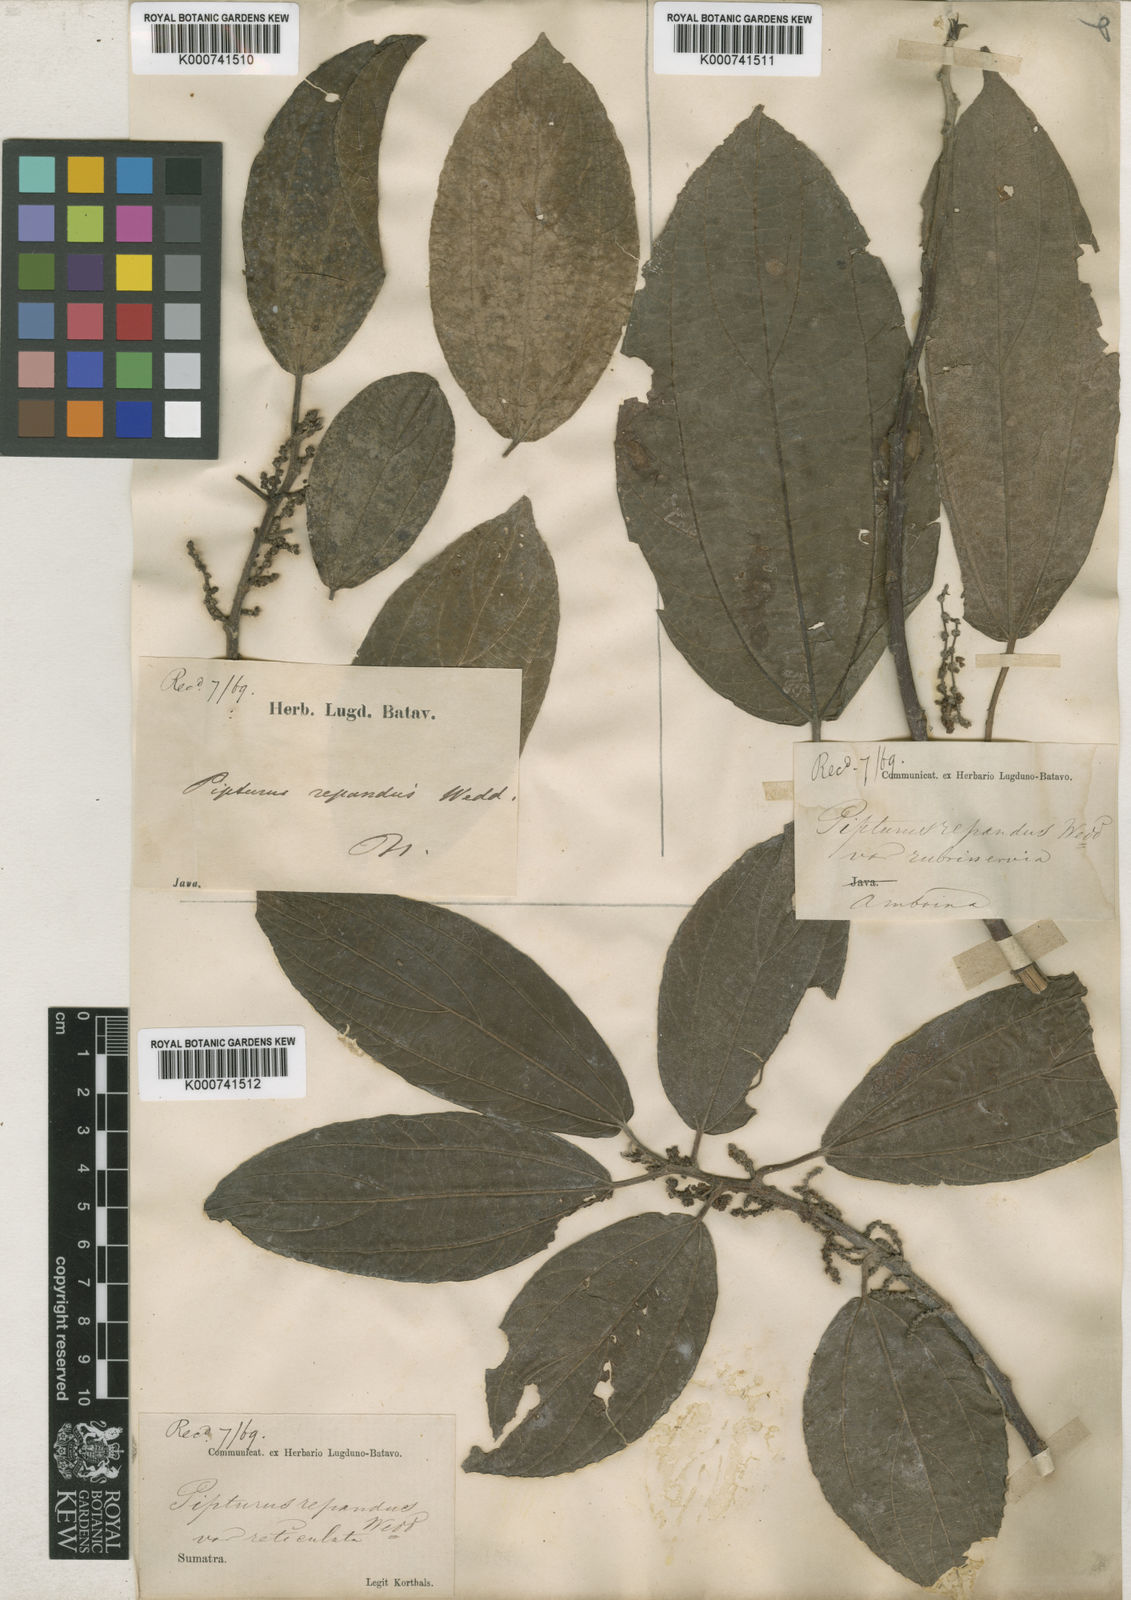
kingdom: Plantae
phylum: Tracheophyta
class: Magnoliopsida
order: Rosales
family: Urticaceae
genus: Nothocnide
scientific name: Nothocnide repanda
